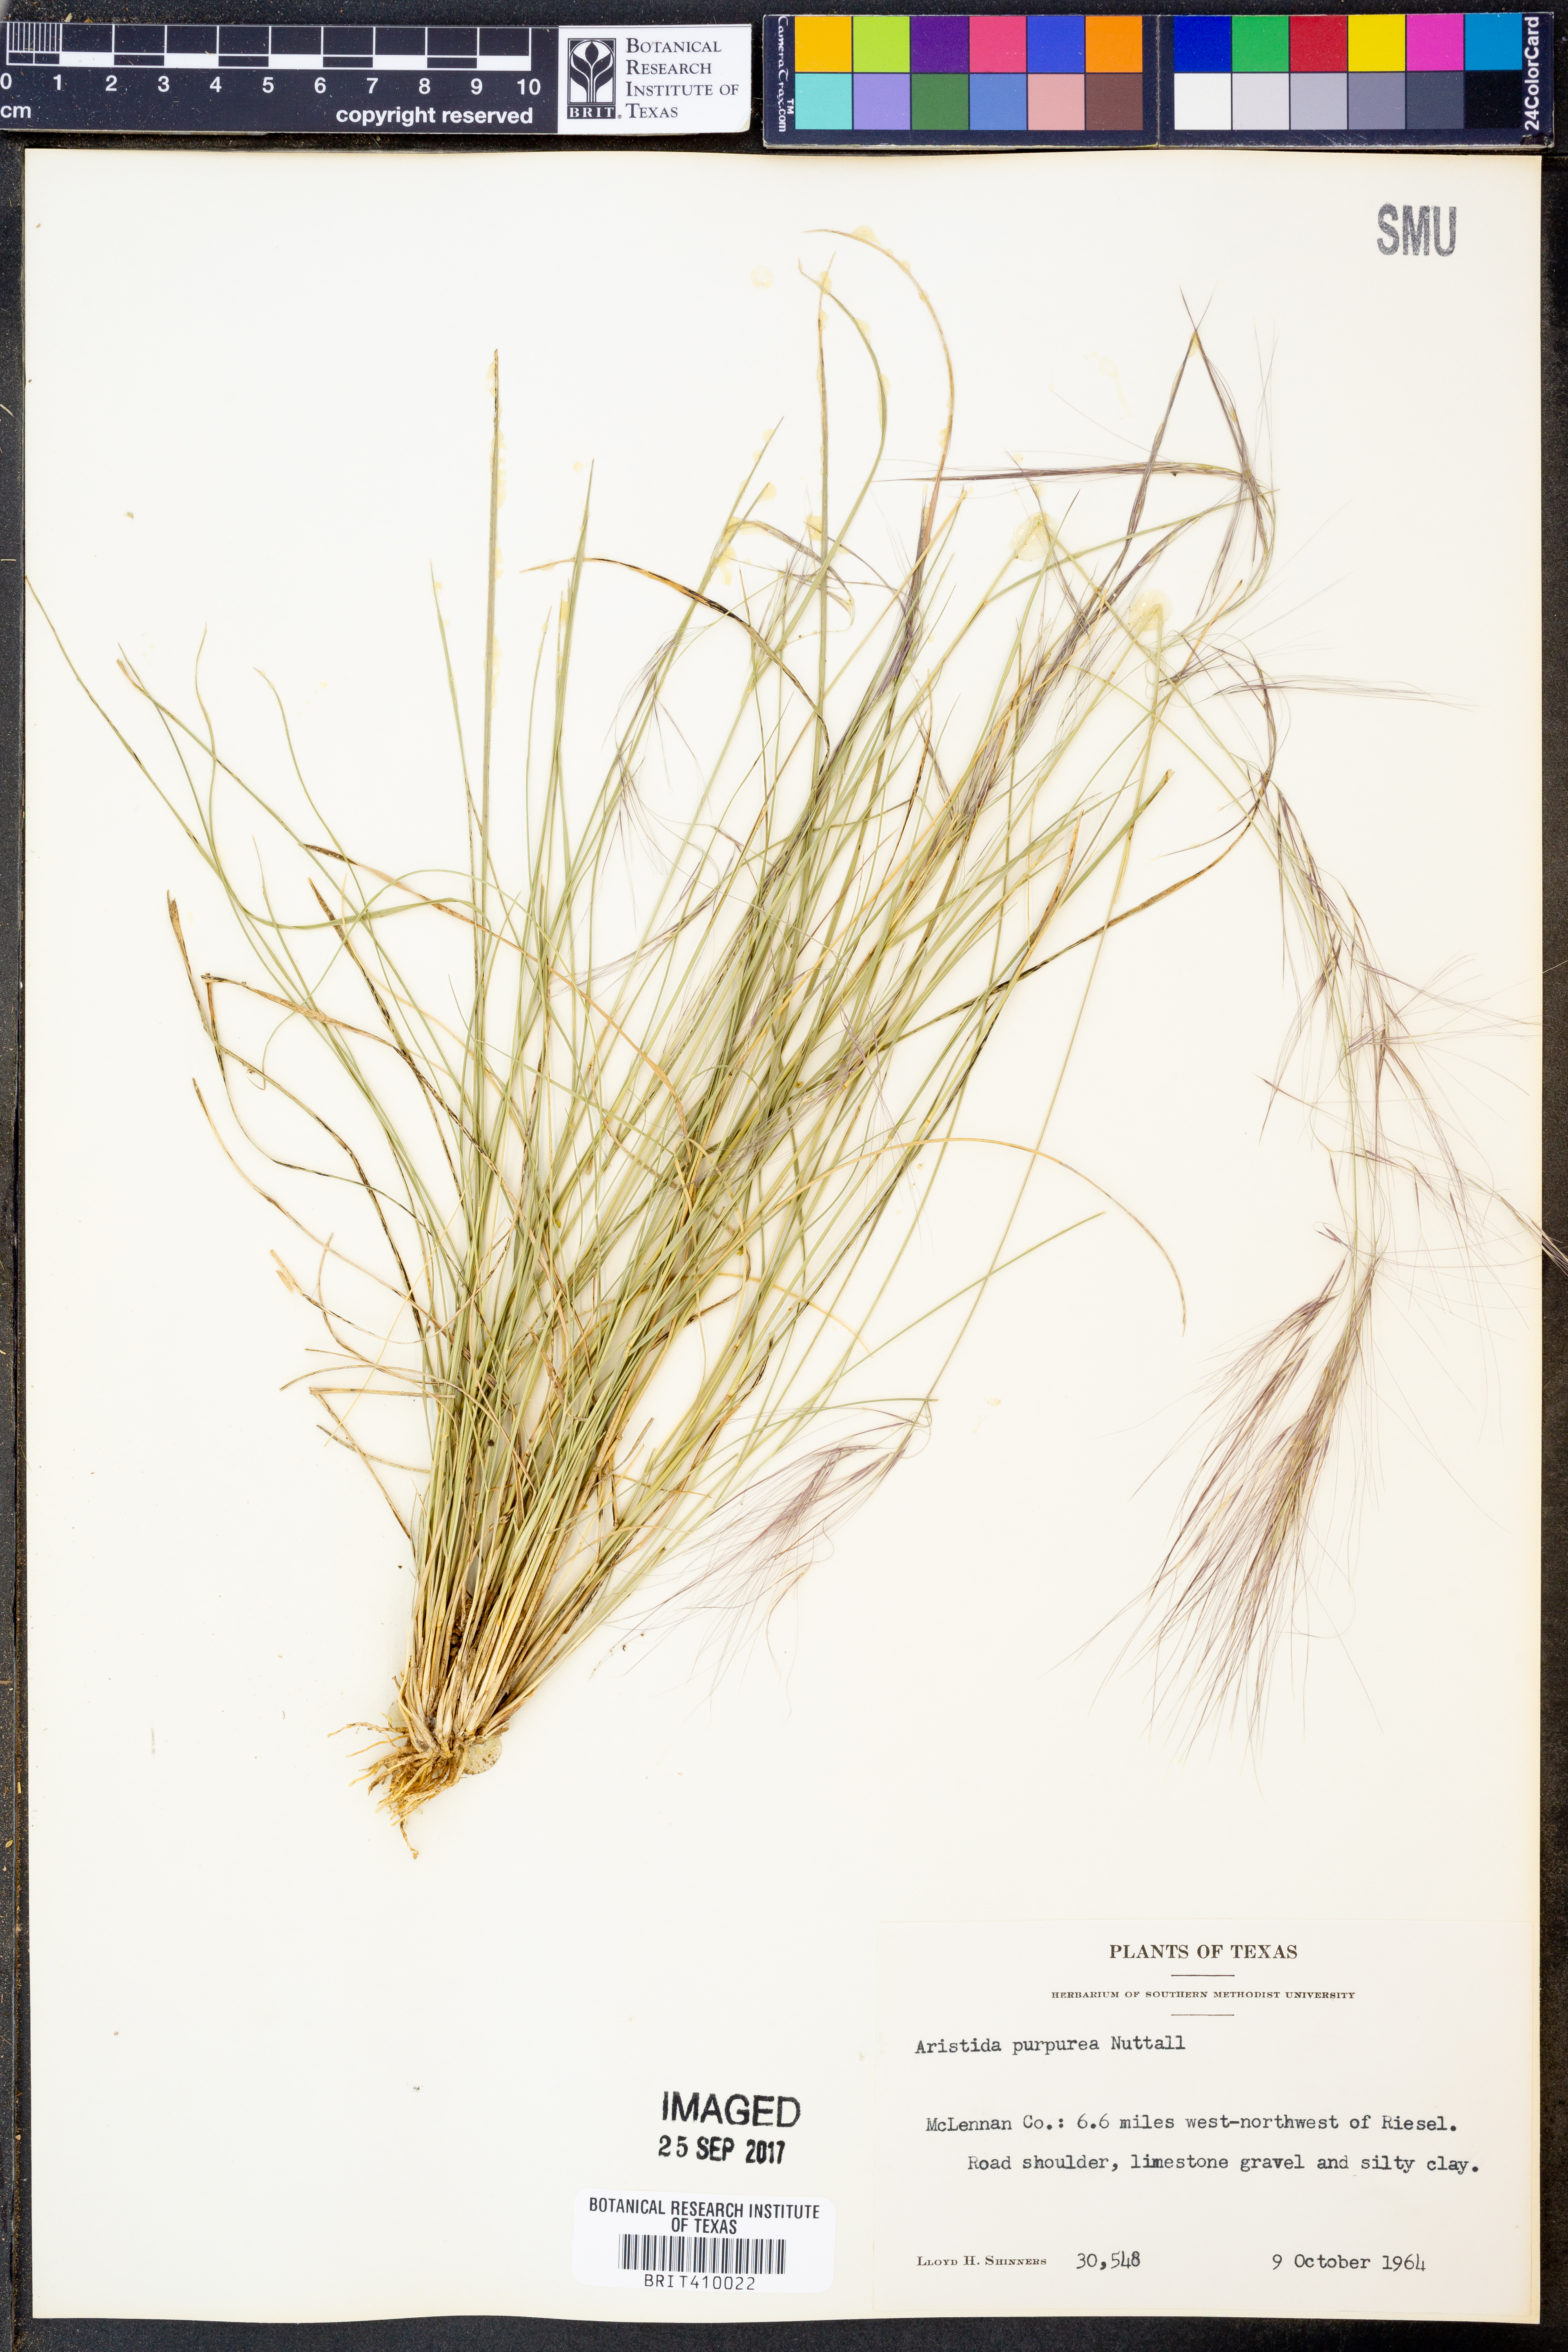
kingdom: Plantae
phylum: Tracheophyta
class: Liliopsida
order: Poales
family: Poaceae
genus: Aristida
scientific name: Aristida purpurea
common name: Purple threeawn
